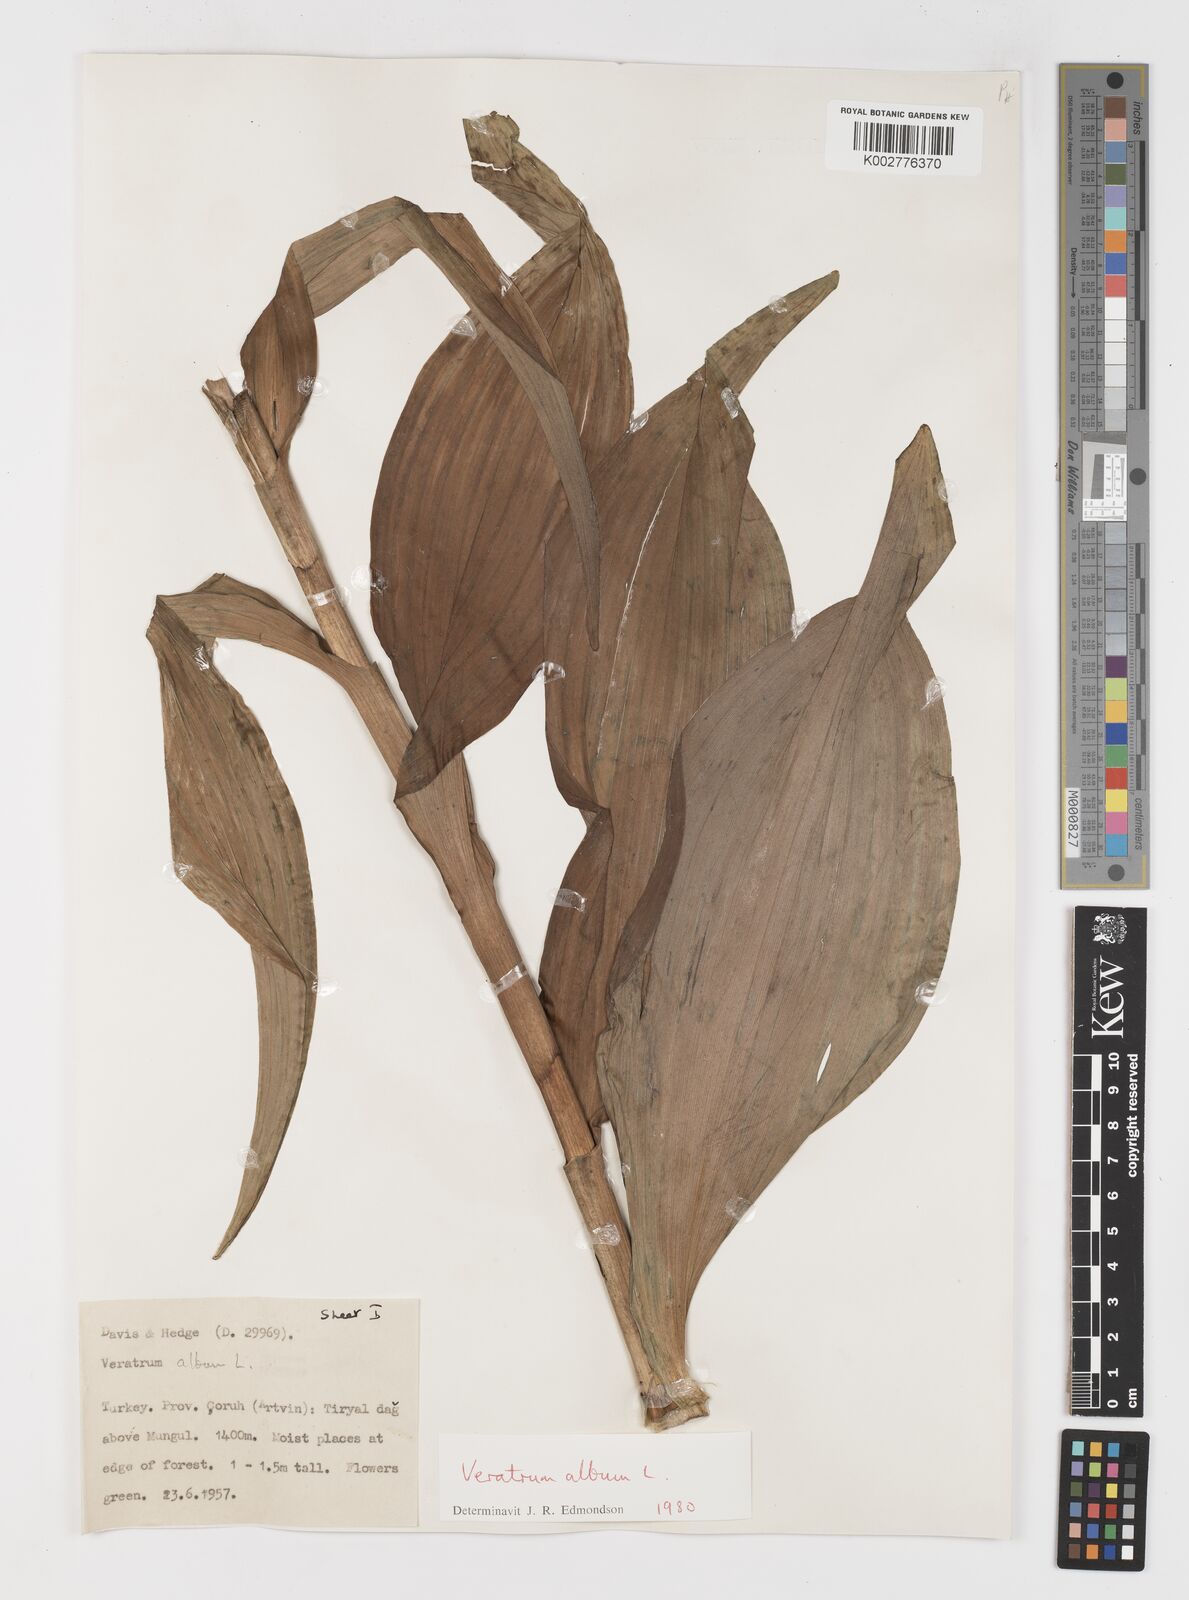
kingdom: Plantae
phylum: Tracheophyta
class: Liliopsida
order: Liliales
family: Melanthiaceae
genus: Veratrum
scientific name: Veratrum
